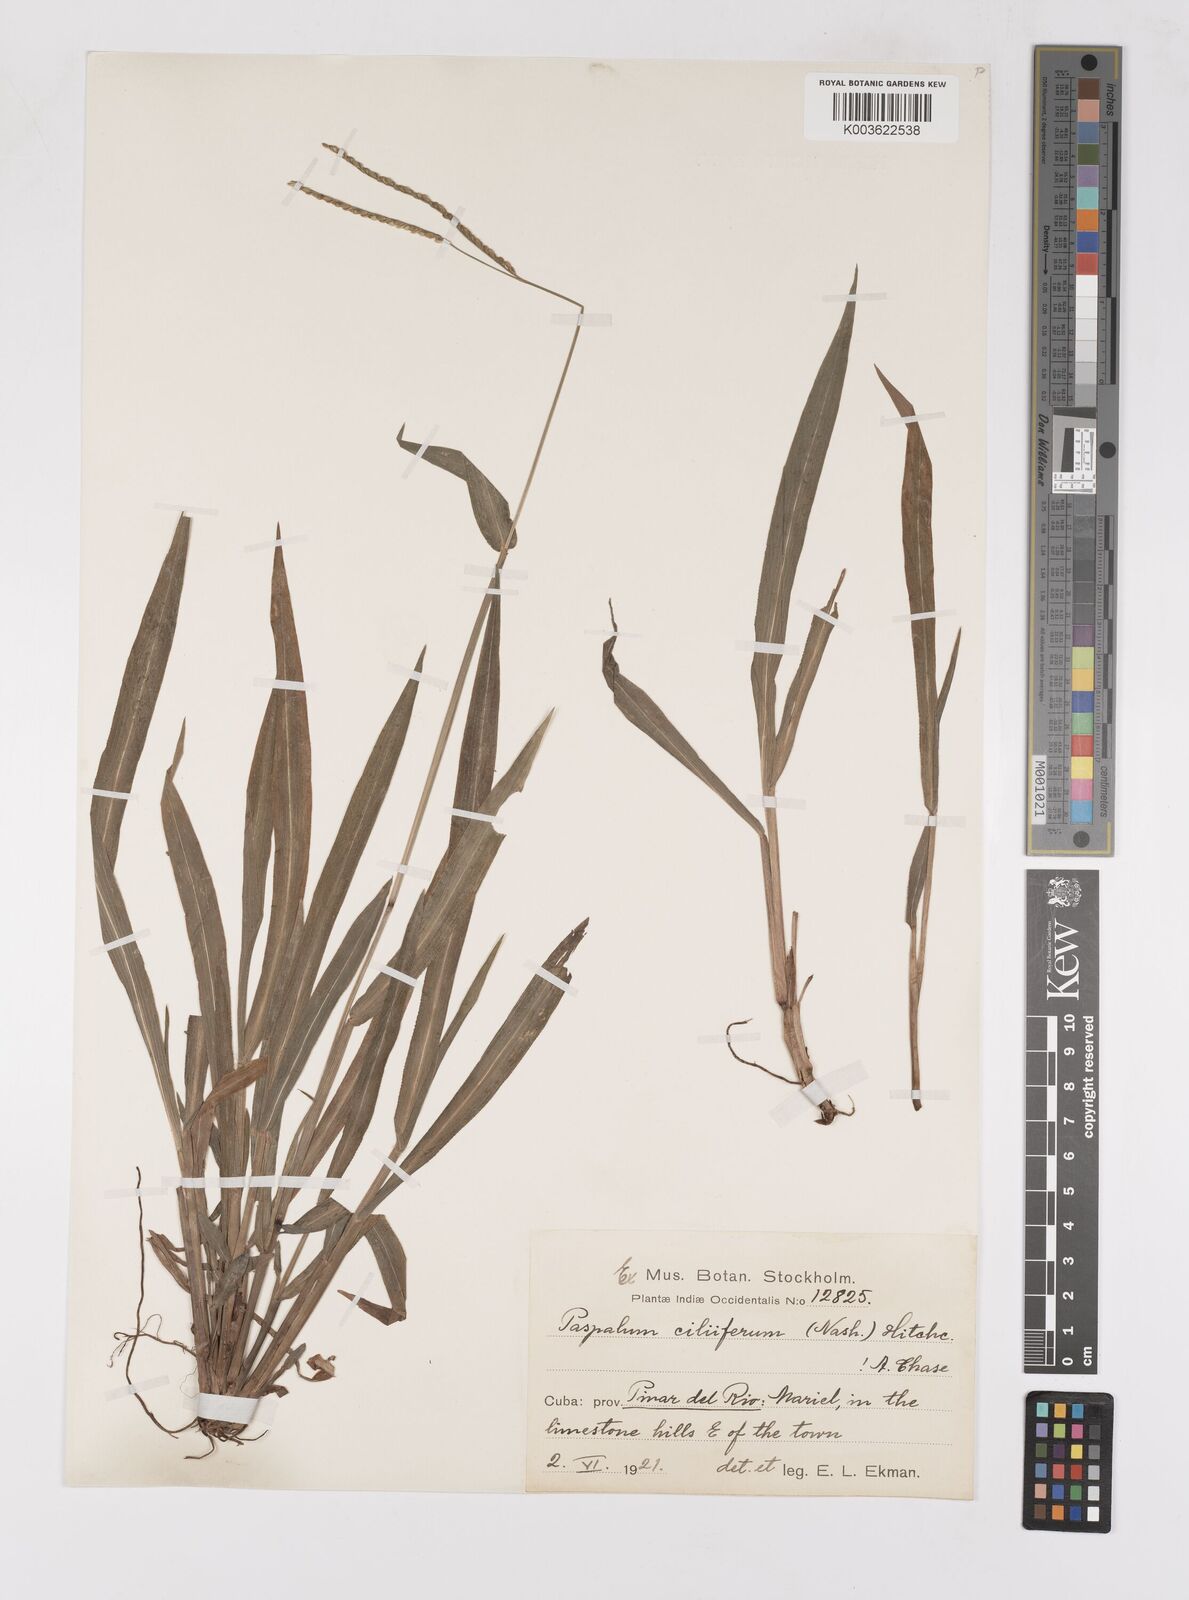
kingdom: Plantae
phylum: Tracheophyta
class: Liliopsida
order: Poales
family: Poaceae
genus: Paspalum
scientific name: Paspalum langei
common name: Rusty-seed paspalum
